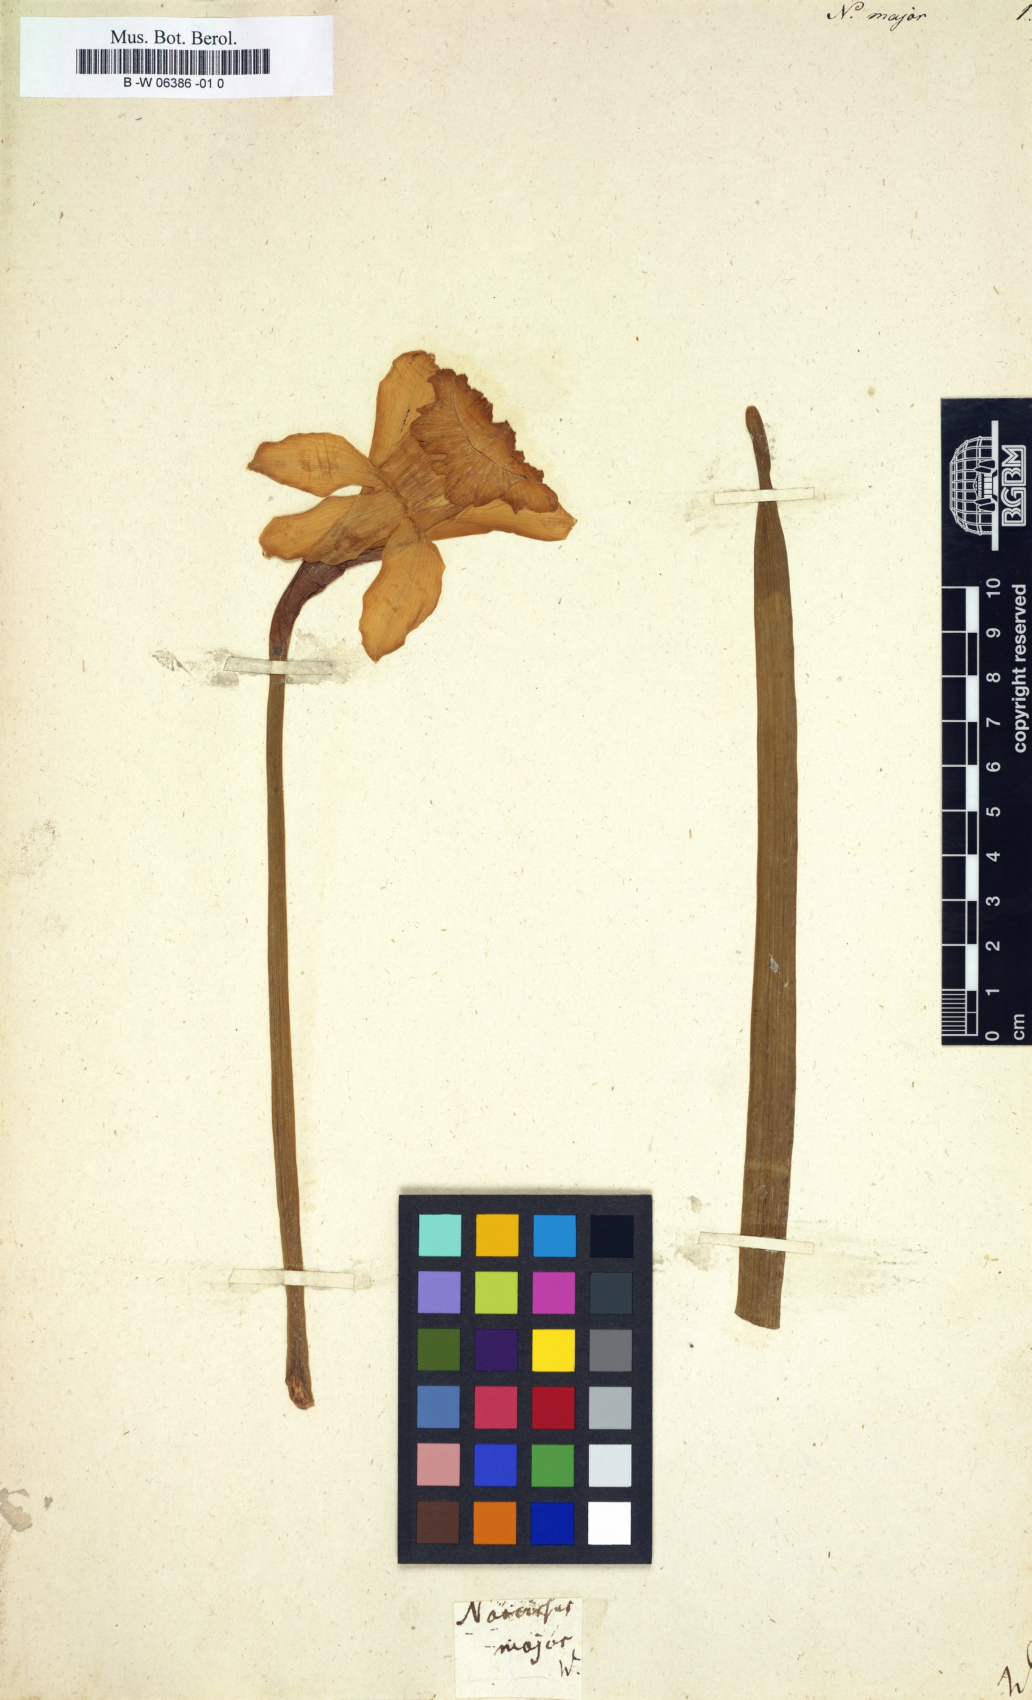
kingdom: Plantae
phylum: Tracheophyta
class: Liliopsida
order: Asparagales
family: Amaryllidaceae
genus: Narcissus
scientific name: Narcissus hispanicus
